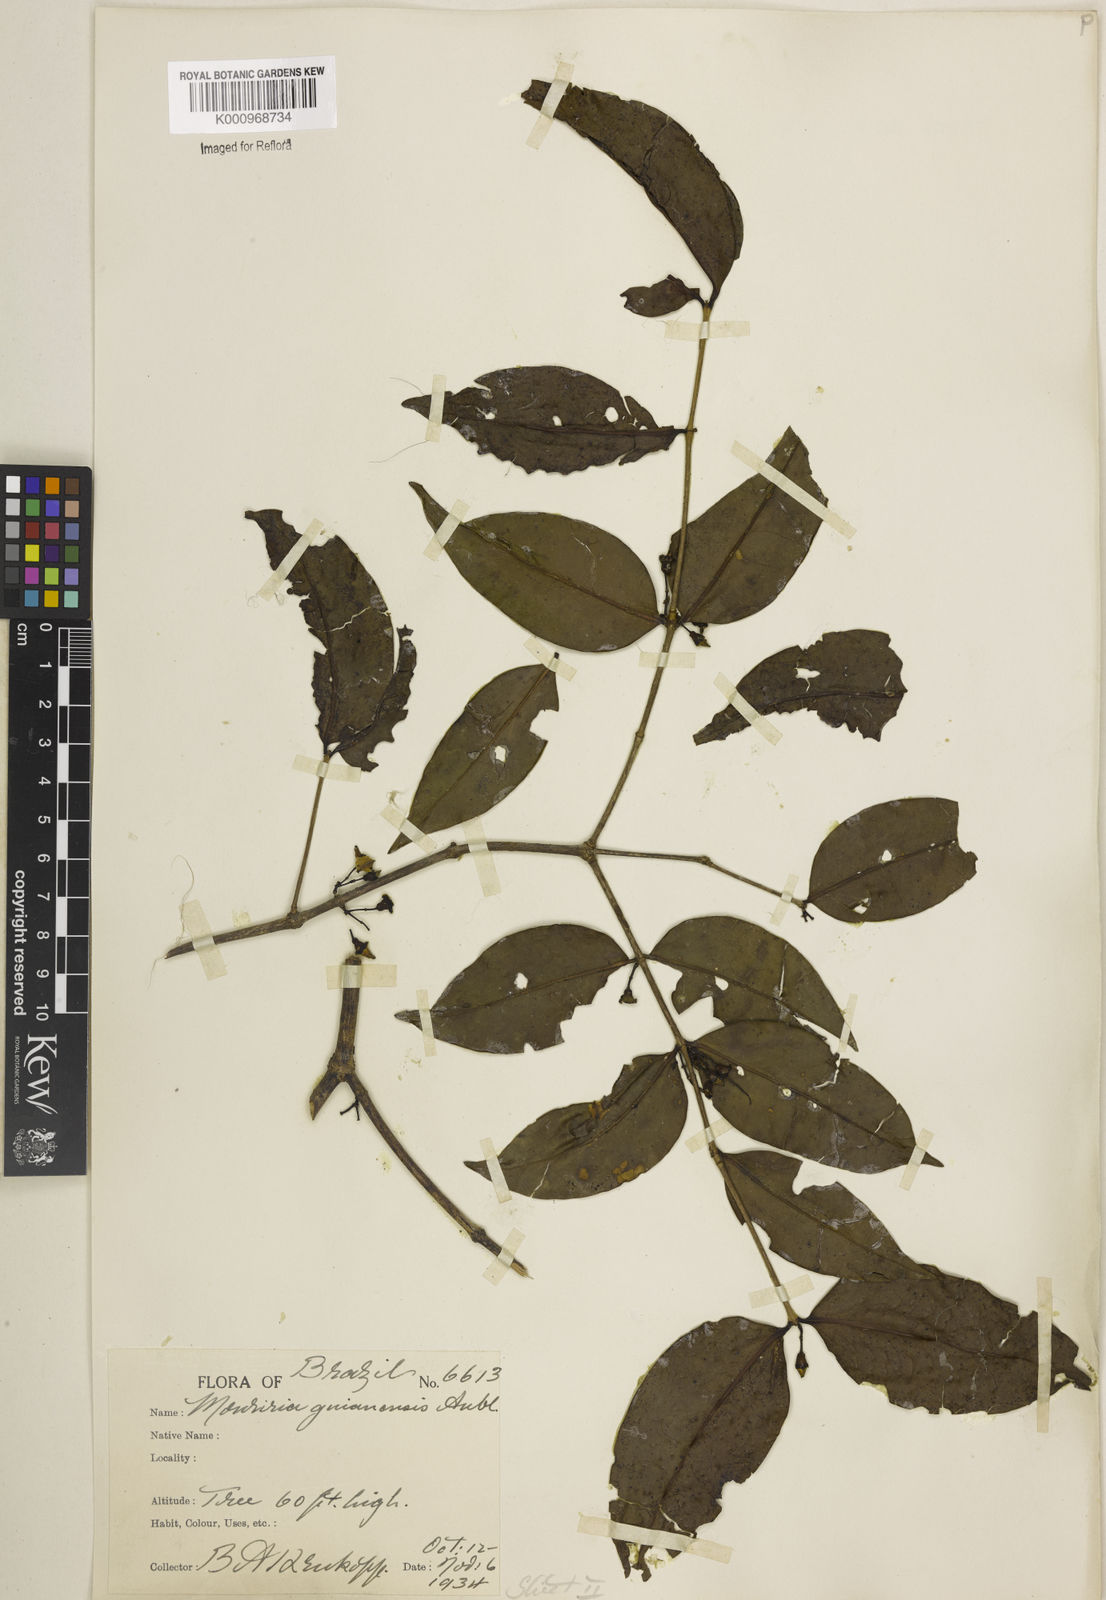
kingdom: Plantae
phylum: Tracheophyta
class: Magnoliopsida
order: Myrtales
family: Melastomataceae
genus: Mouriri
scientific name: Mouriri guianensis
